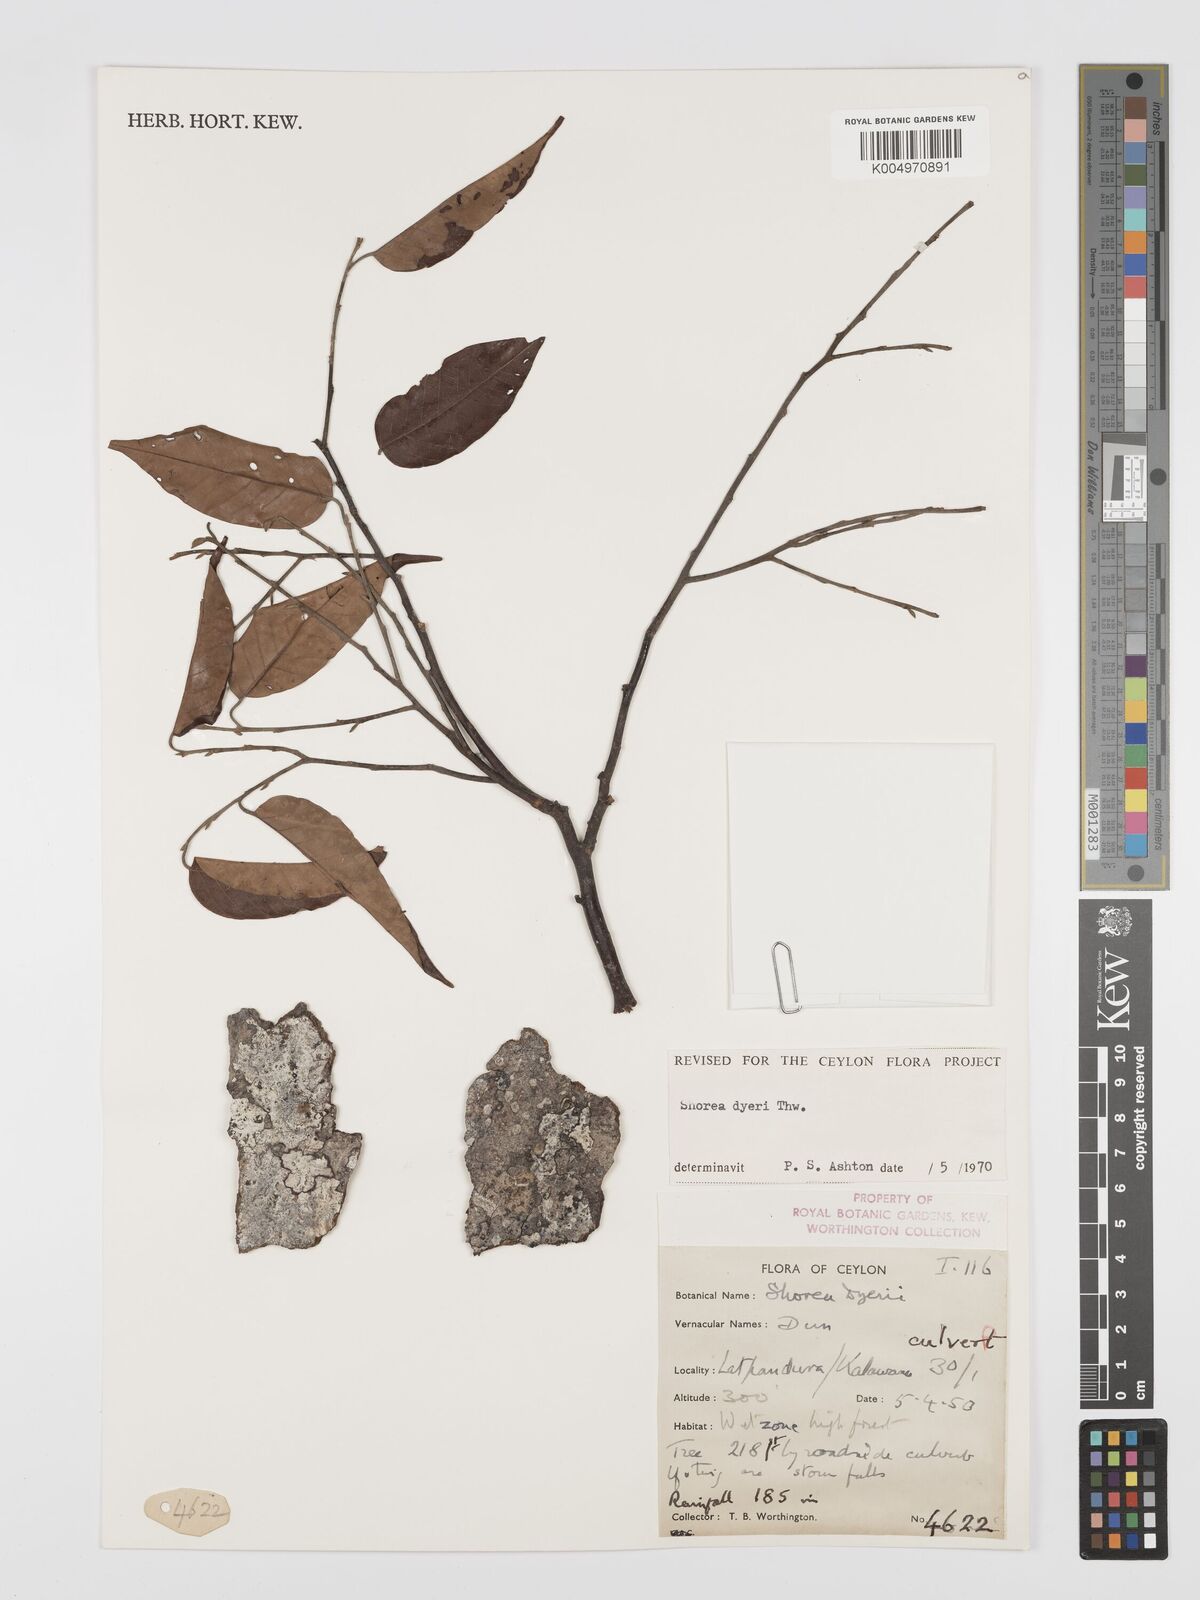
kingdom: Plantae
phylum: Tracheophyta
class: Magnoliopsida
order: Malvales
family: Dipterocarpaceae
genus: Shorea
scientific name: Shorea dyeri
